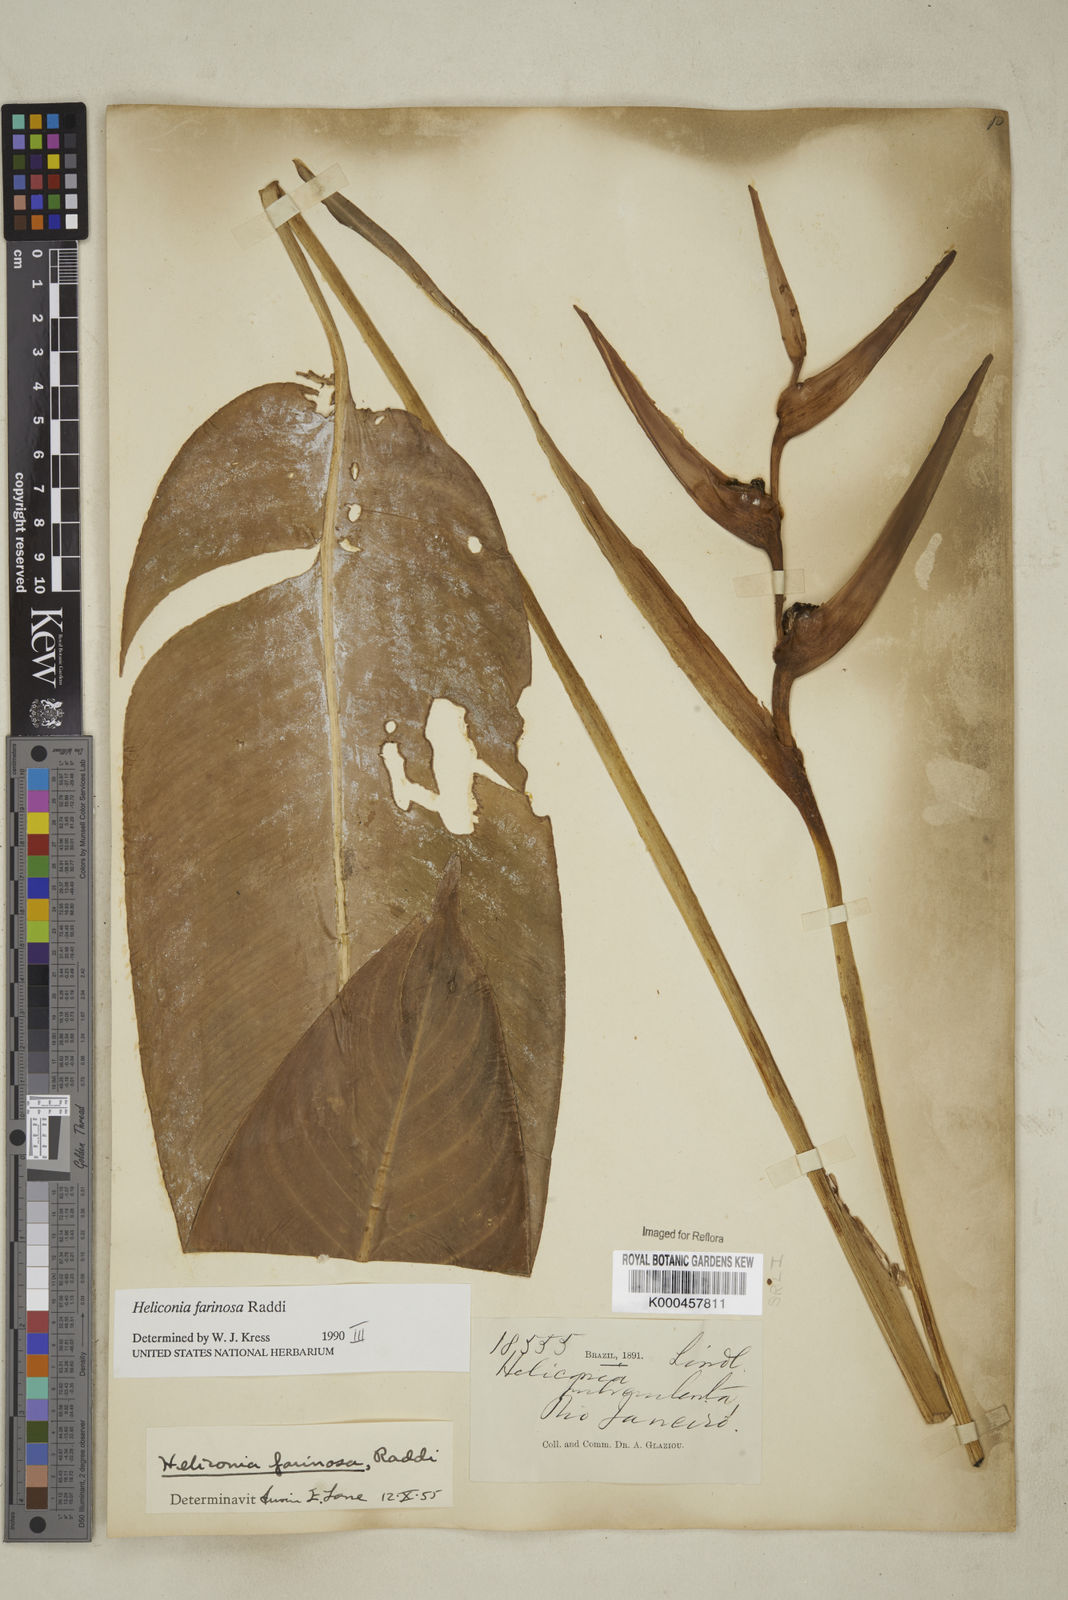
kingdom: Plantae
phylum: Tracheophyta
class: Liliopsida
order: Zingiberales
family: Heliconiaceae
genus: Heliconia
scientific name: Heliconia farinosa
